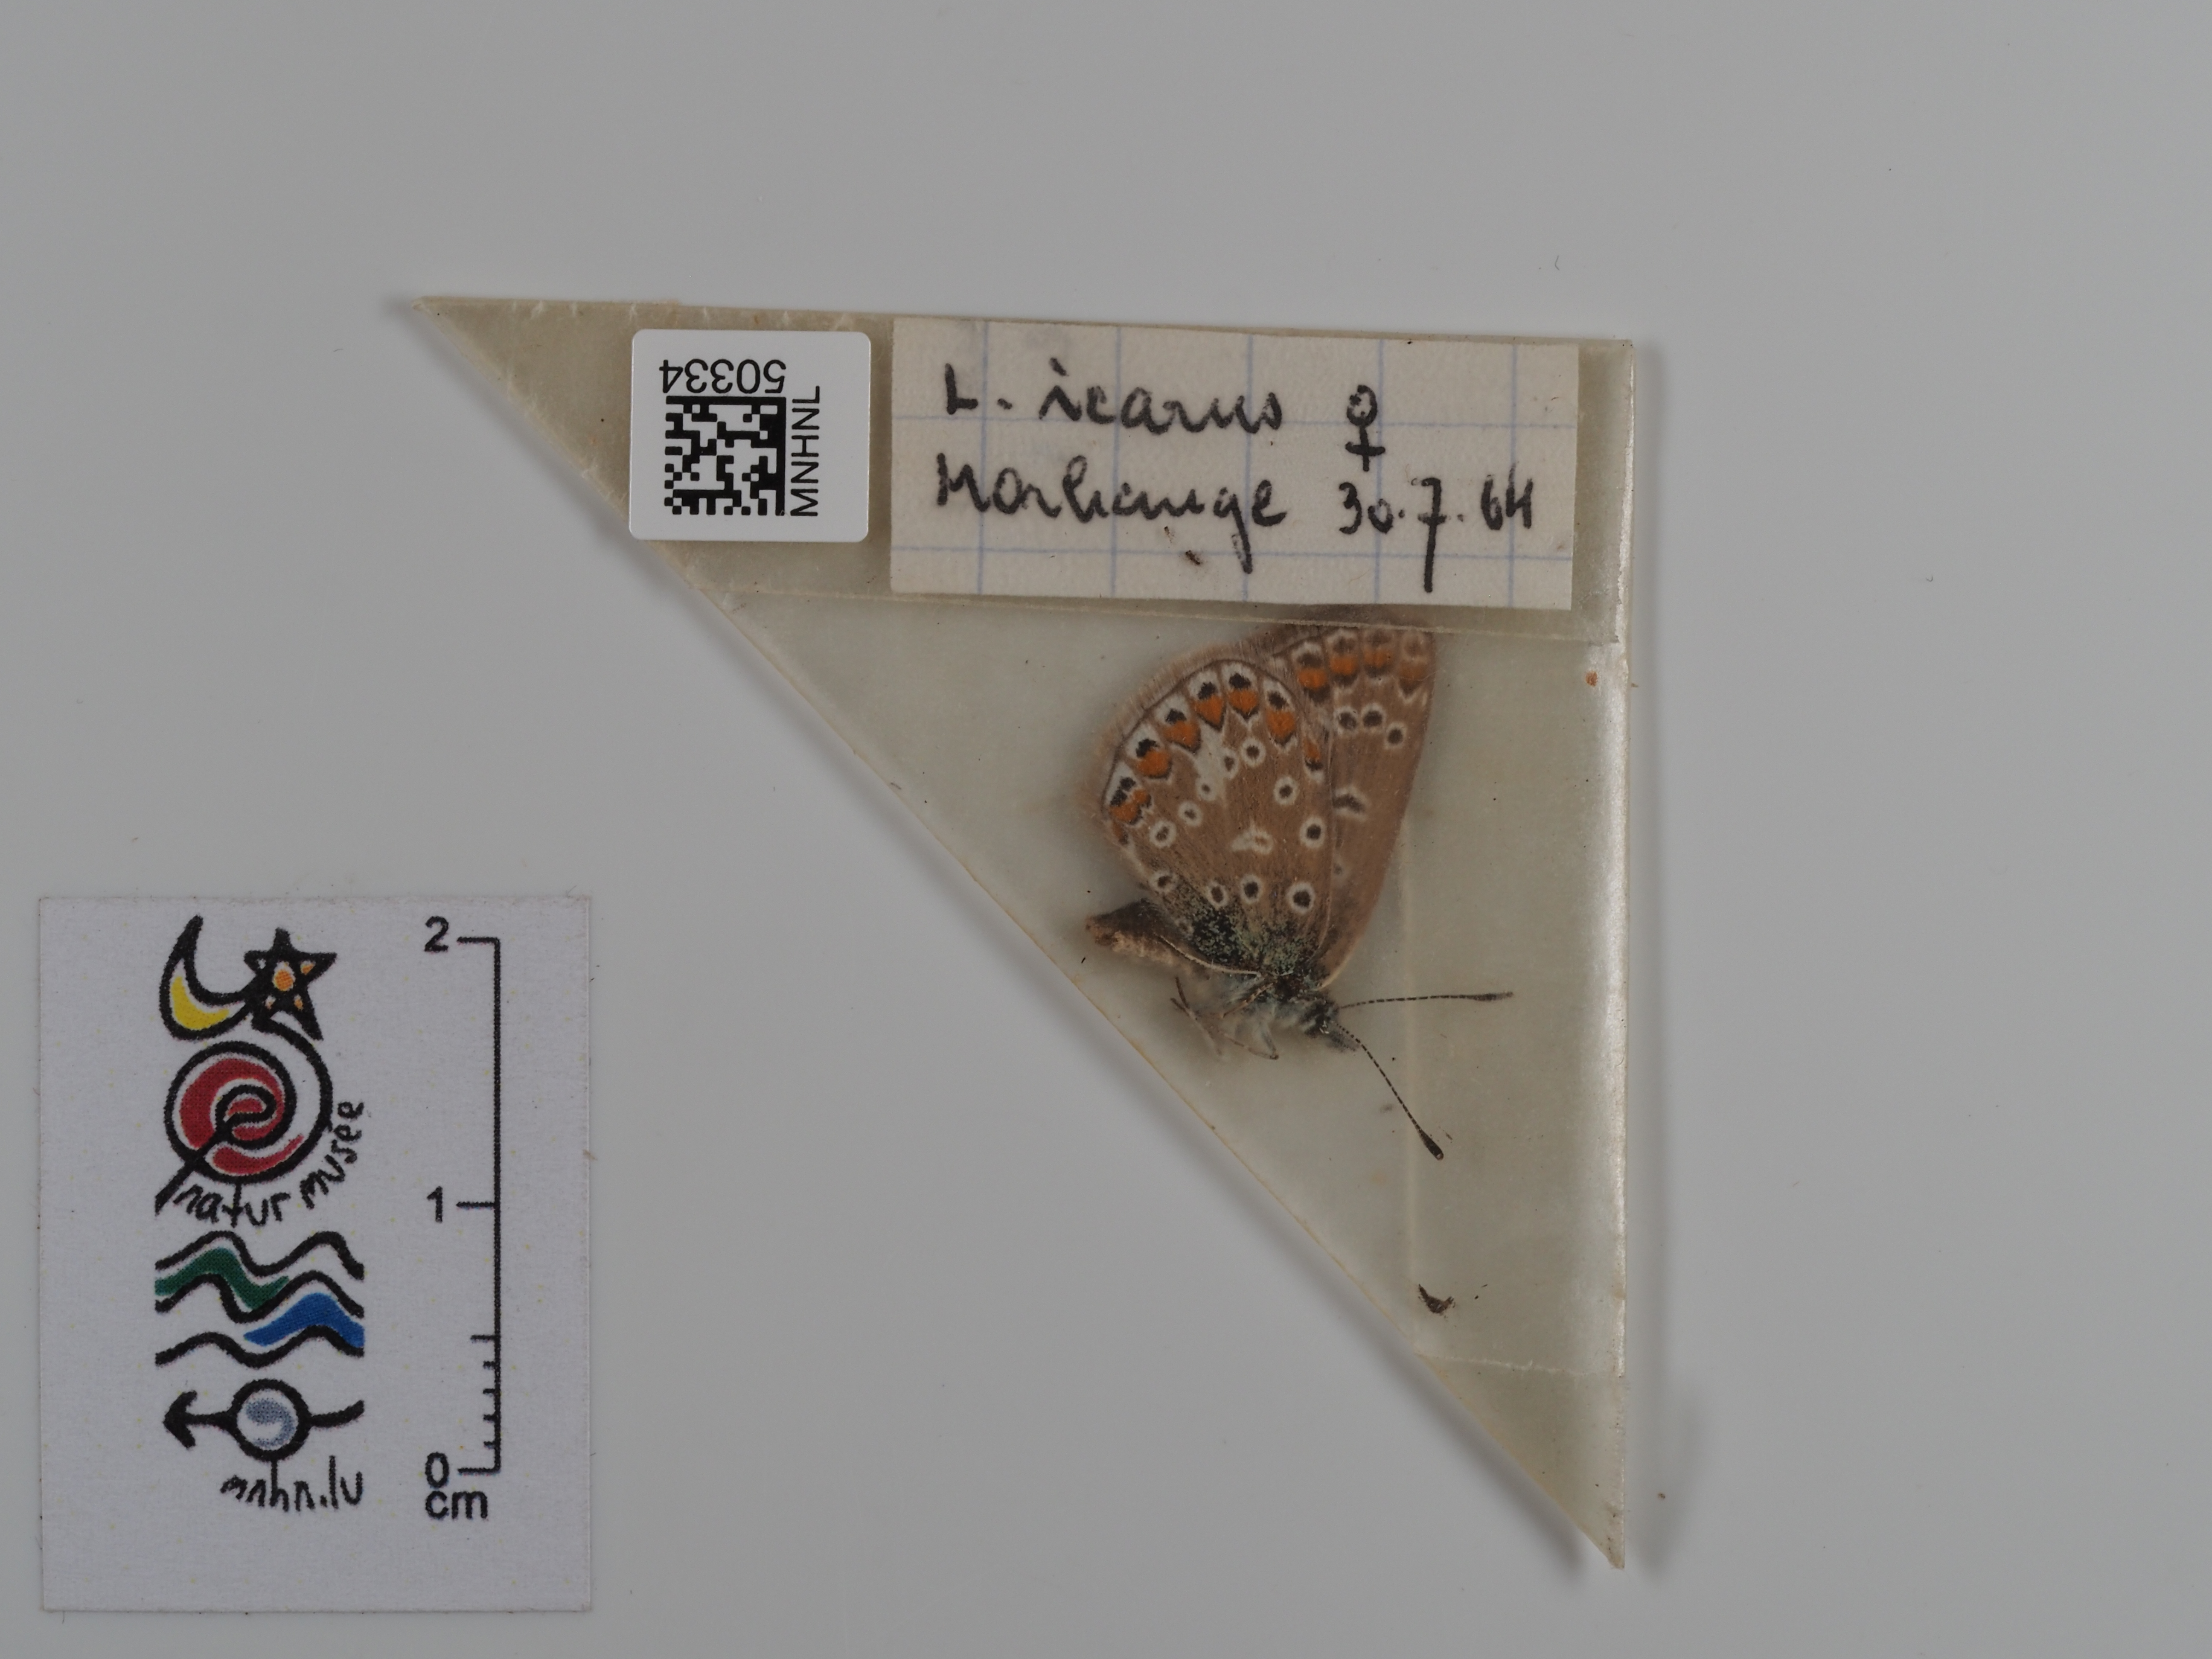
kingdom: Animalia
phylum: Arthropoda
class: Insecta
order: Lepidoptera
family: Lycaenidae
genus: Polyommatus
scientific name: Polyommatus icarus
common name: Common blue
